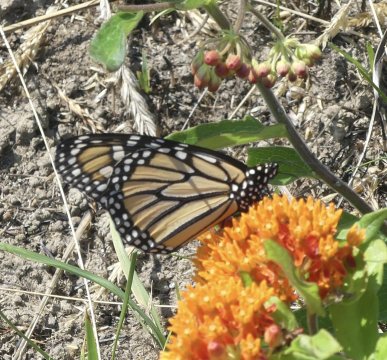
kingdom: Animalia
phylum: Arthropoda
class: Insecta
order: Lepidoptera
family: Nymphalidae
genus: Danaus
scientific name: Danaus plexippus
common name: Monarch
